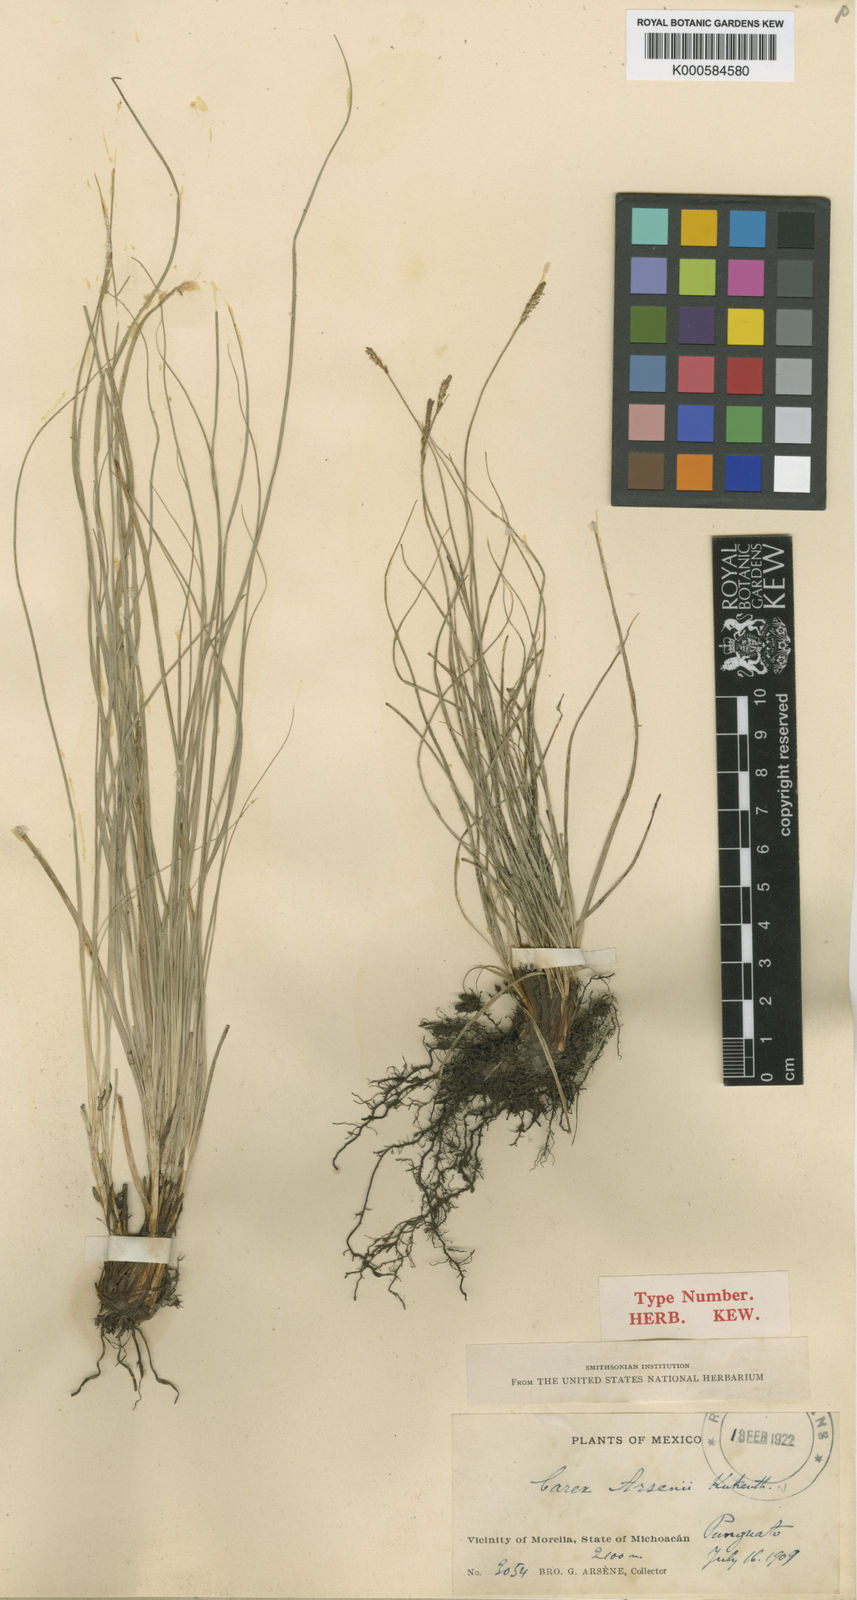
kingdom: Plantae
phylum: Tracheophyta
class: Liliopsida
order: Poales
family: Cyperaceae
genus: Carex
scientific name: Carex
